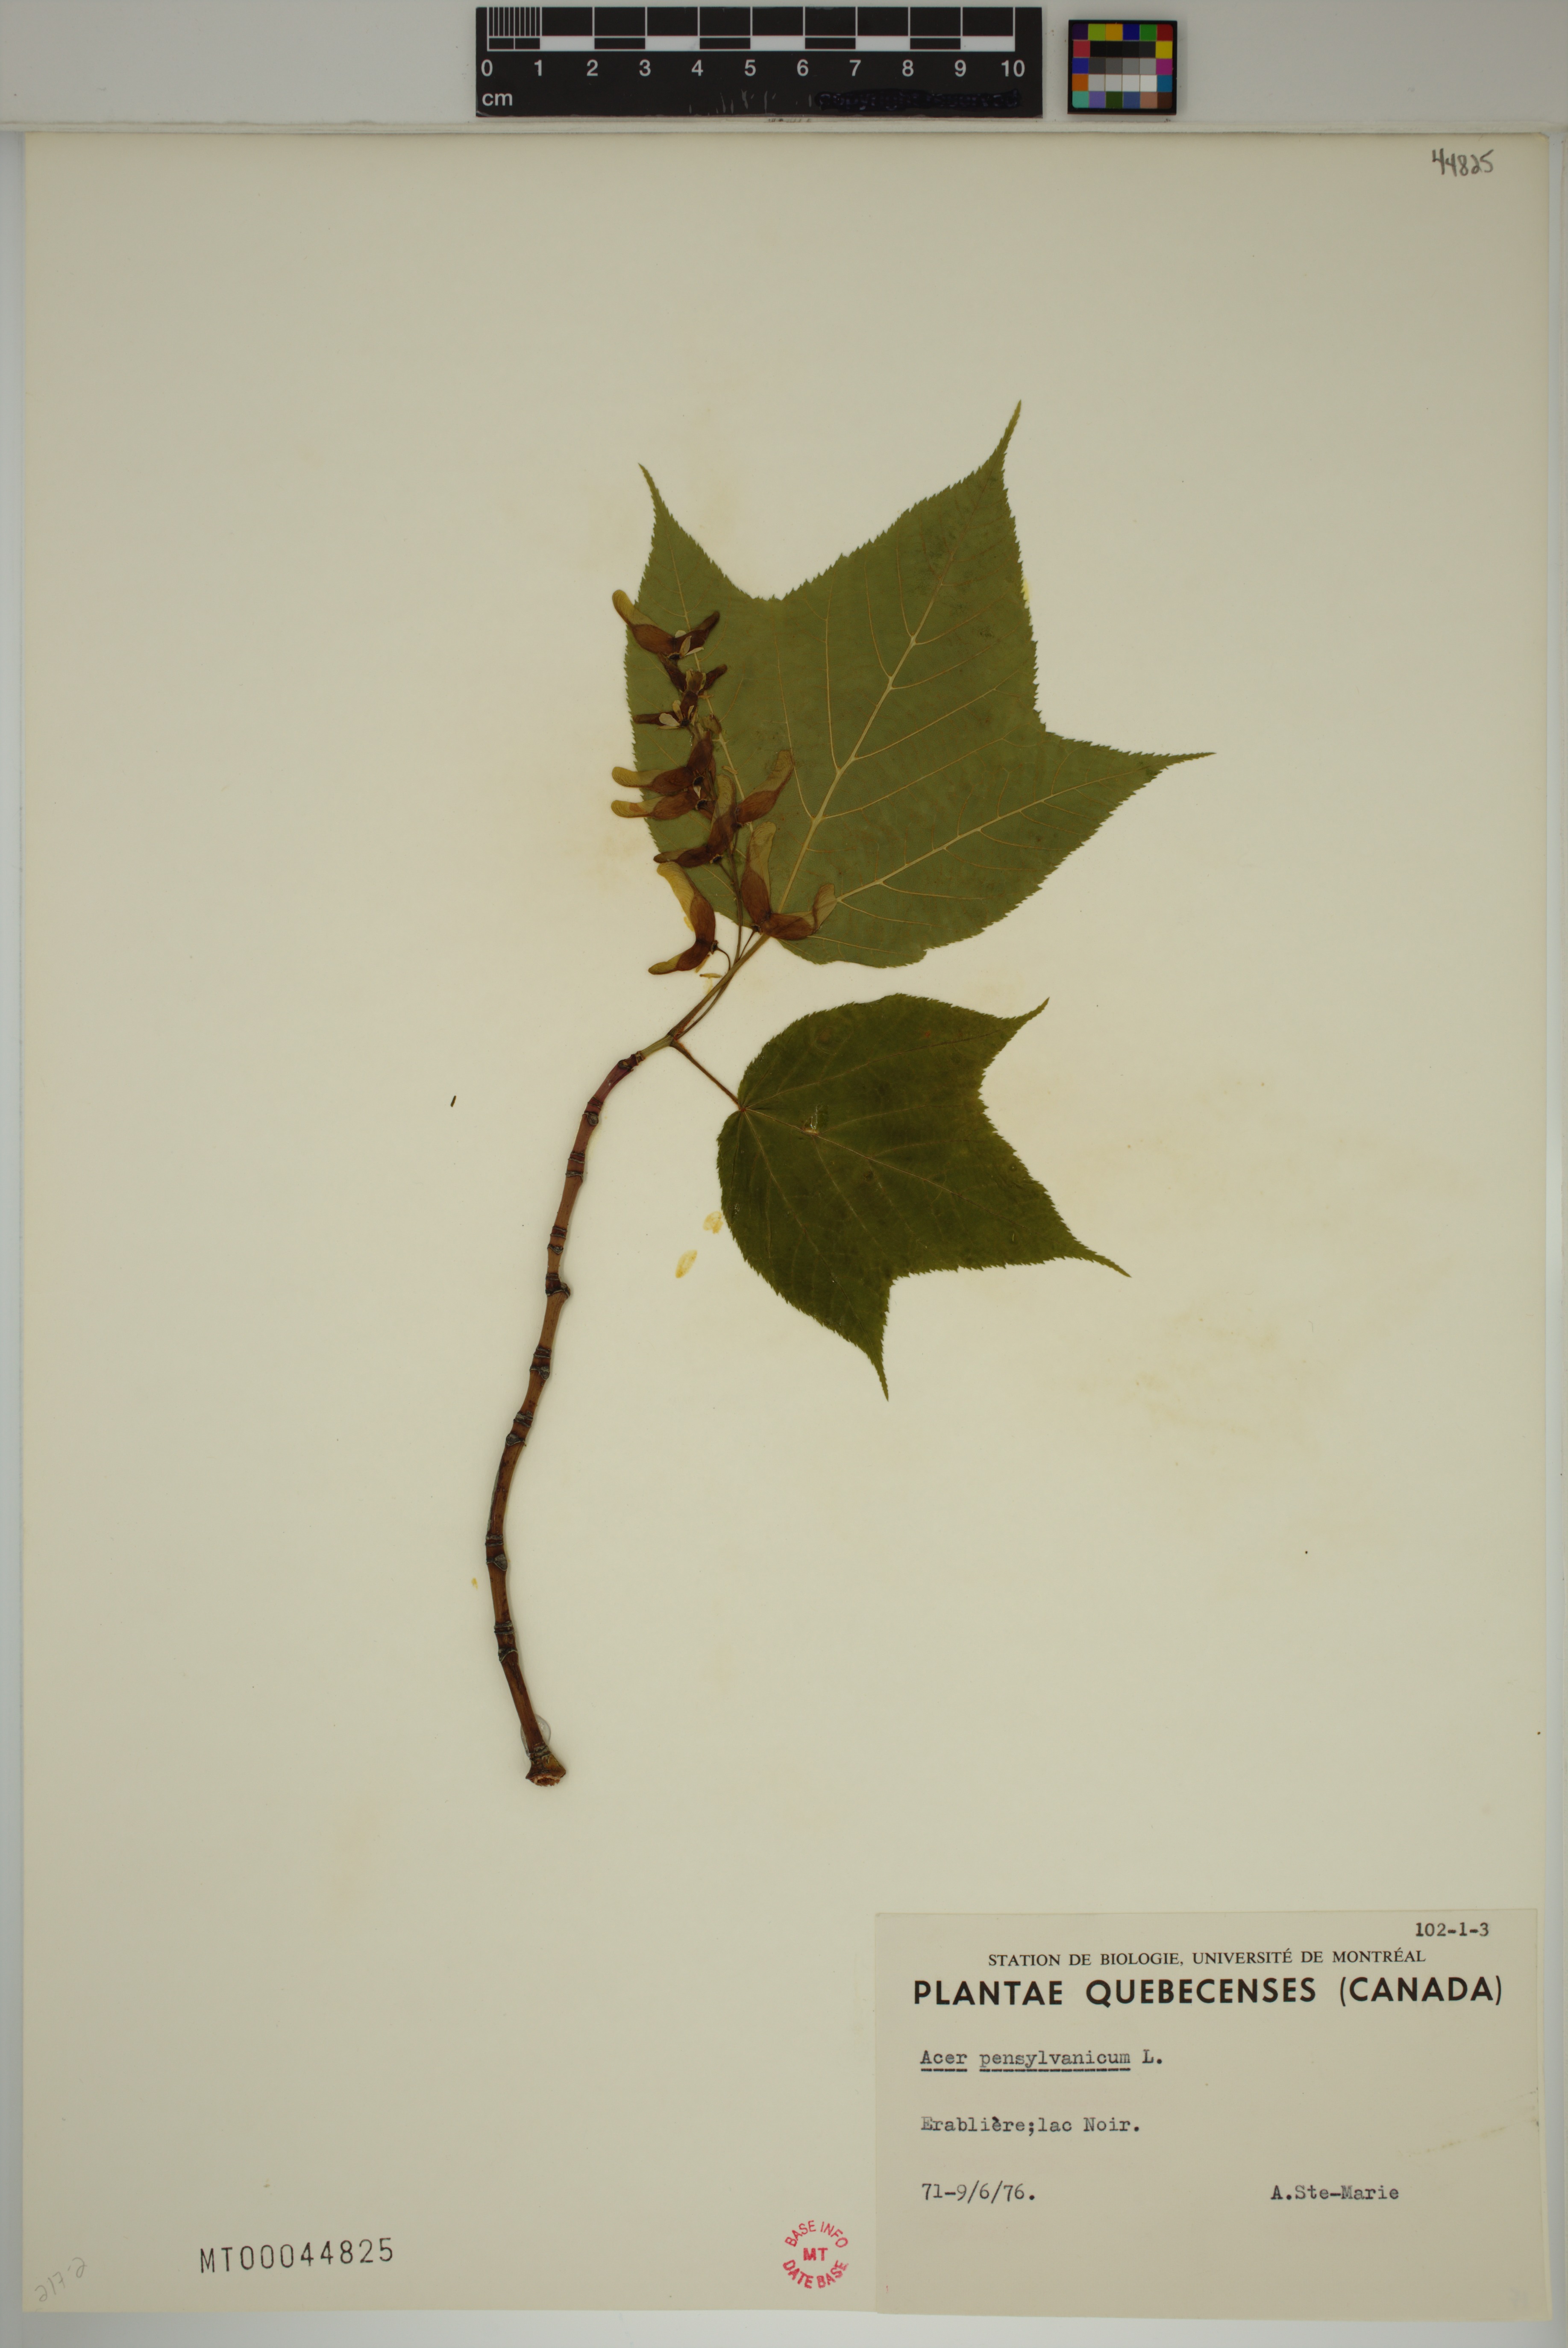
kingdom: Plantae
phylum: Tracheophyta
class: Magnoliopsida
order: Sapindales
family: Sapindaceae
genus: Acer
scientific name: Acer pensylvanicum
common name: Moosewood
